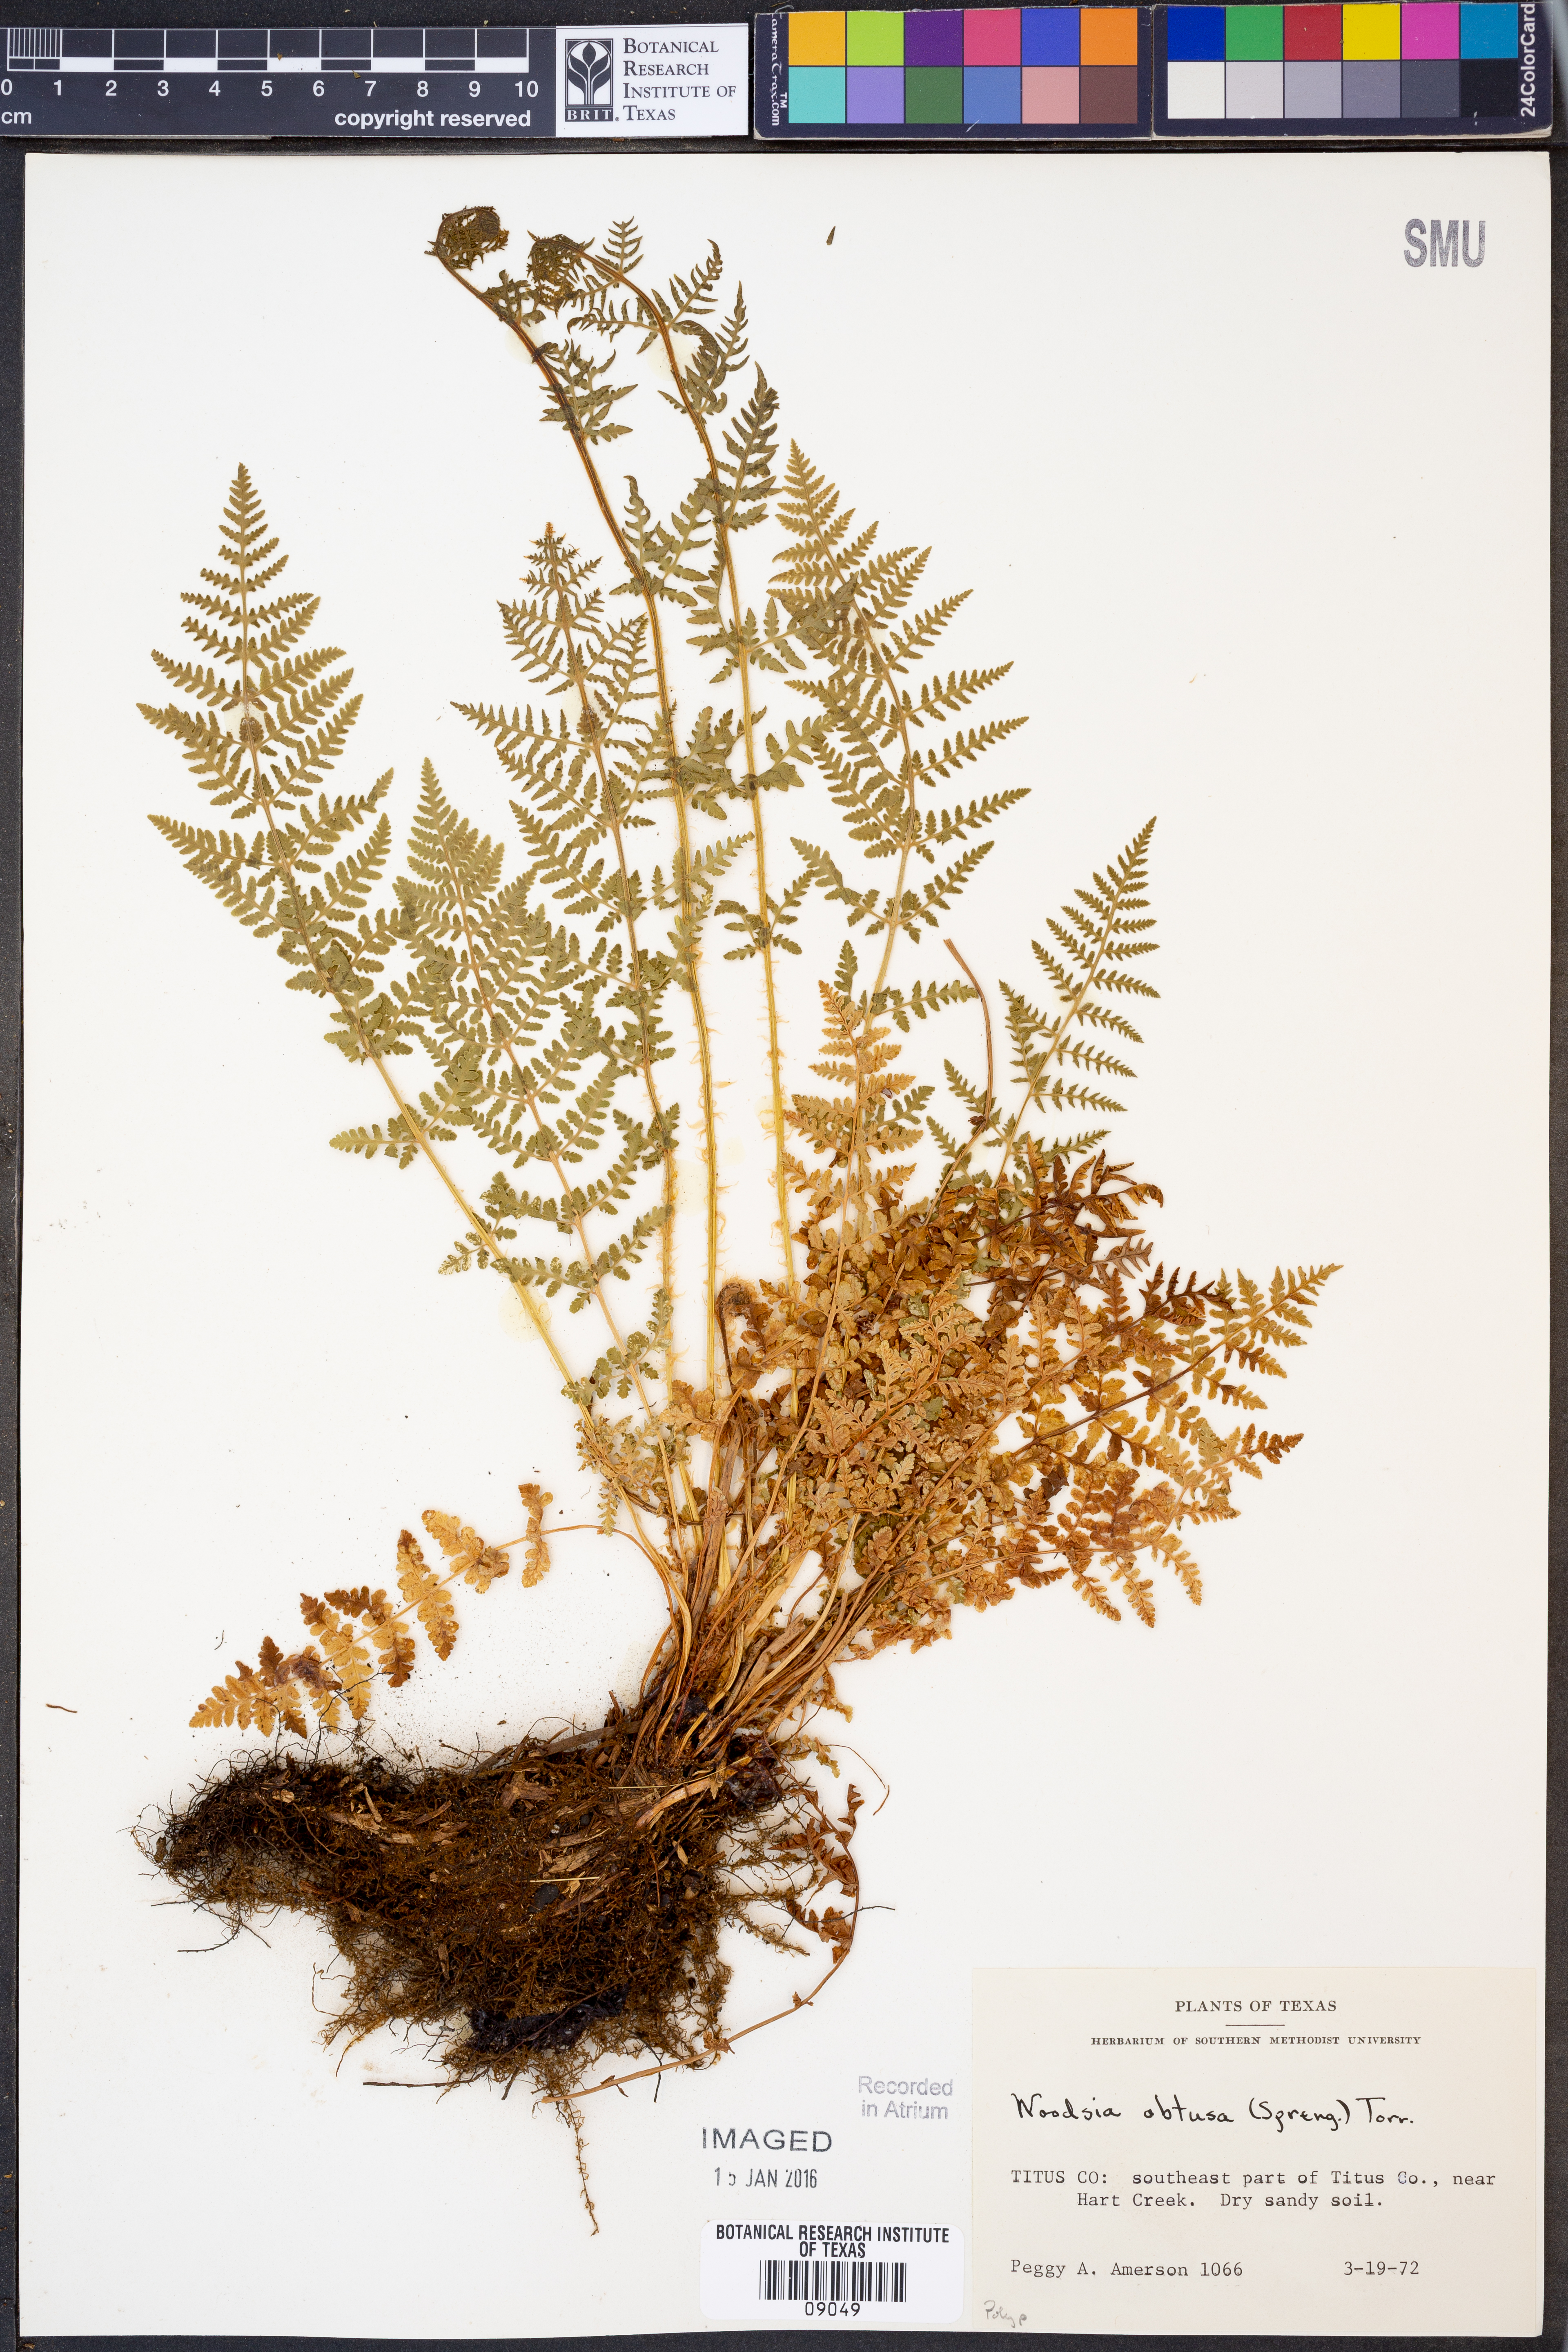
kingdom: Plantae
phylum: Tracheophyta
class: Polypodiopsida
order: Polypodiales
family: Woodsiaceae
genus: Physematium
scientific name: Physematium obtusum
